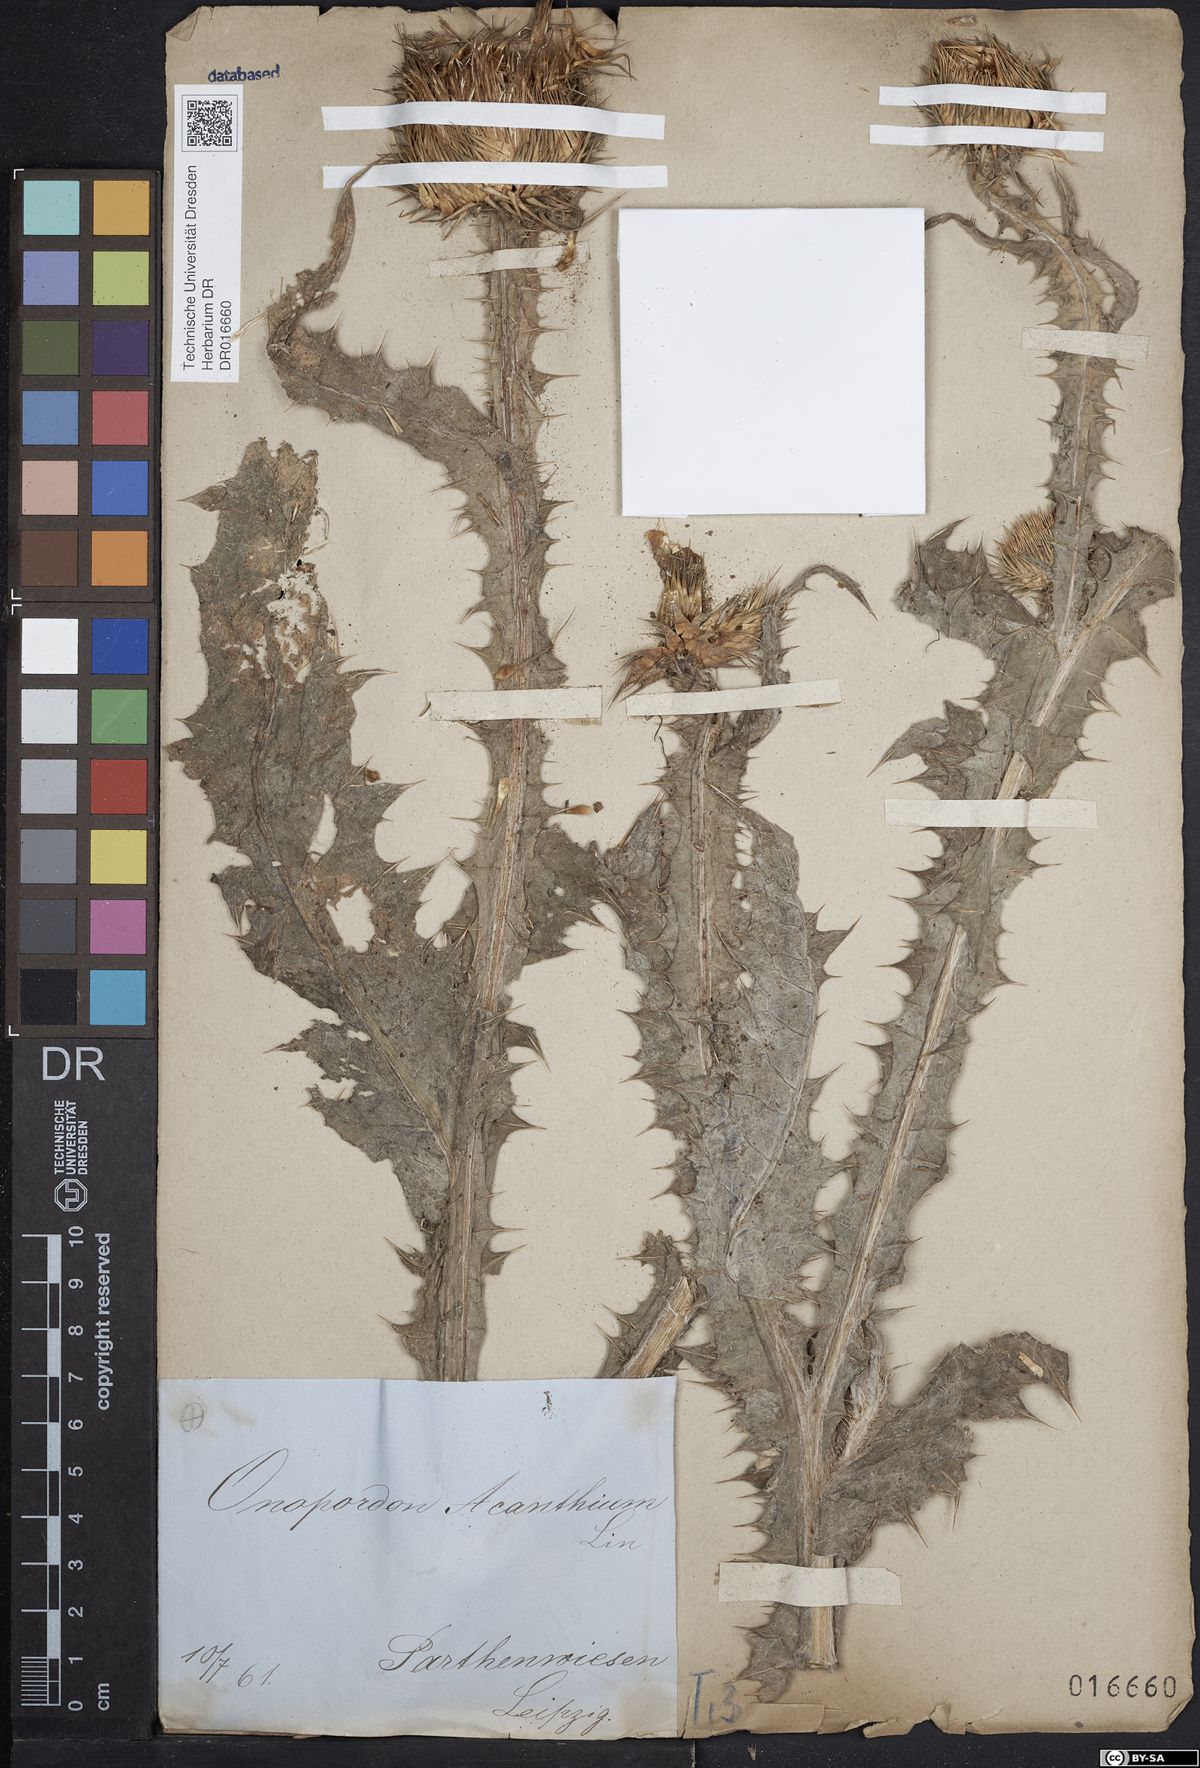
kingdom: Plantae
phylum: Tracheophyta
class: Magnoliopsida
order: Asterales
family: Asteraceae
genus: Onopordum
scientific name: Onopordum acanthium
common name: Scotch thistle
